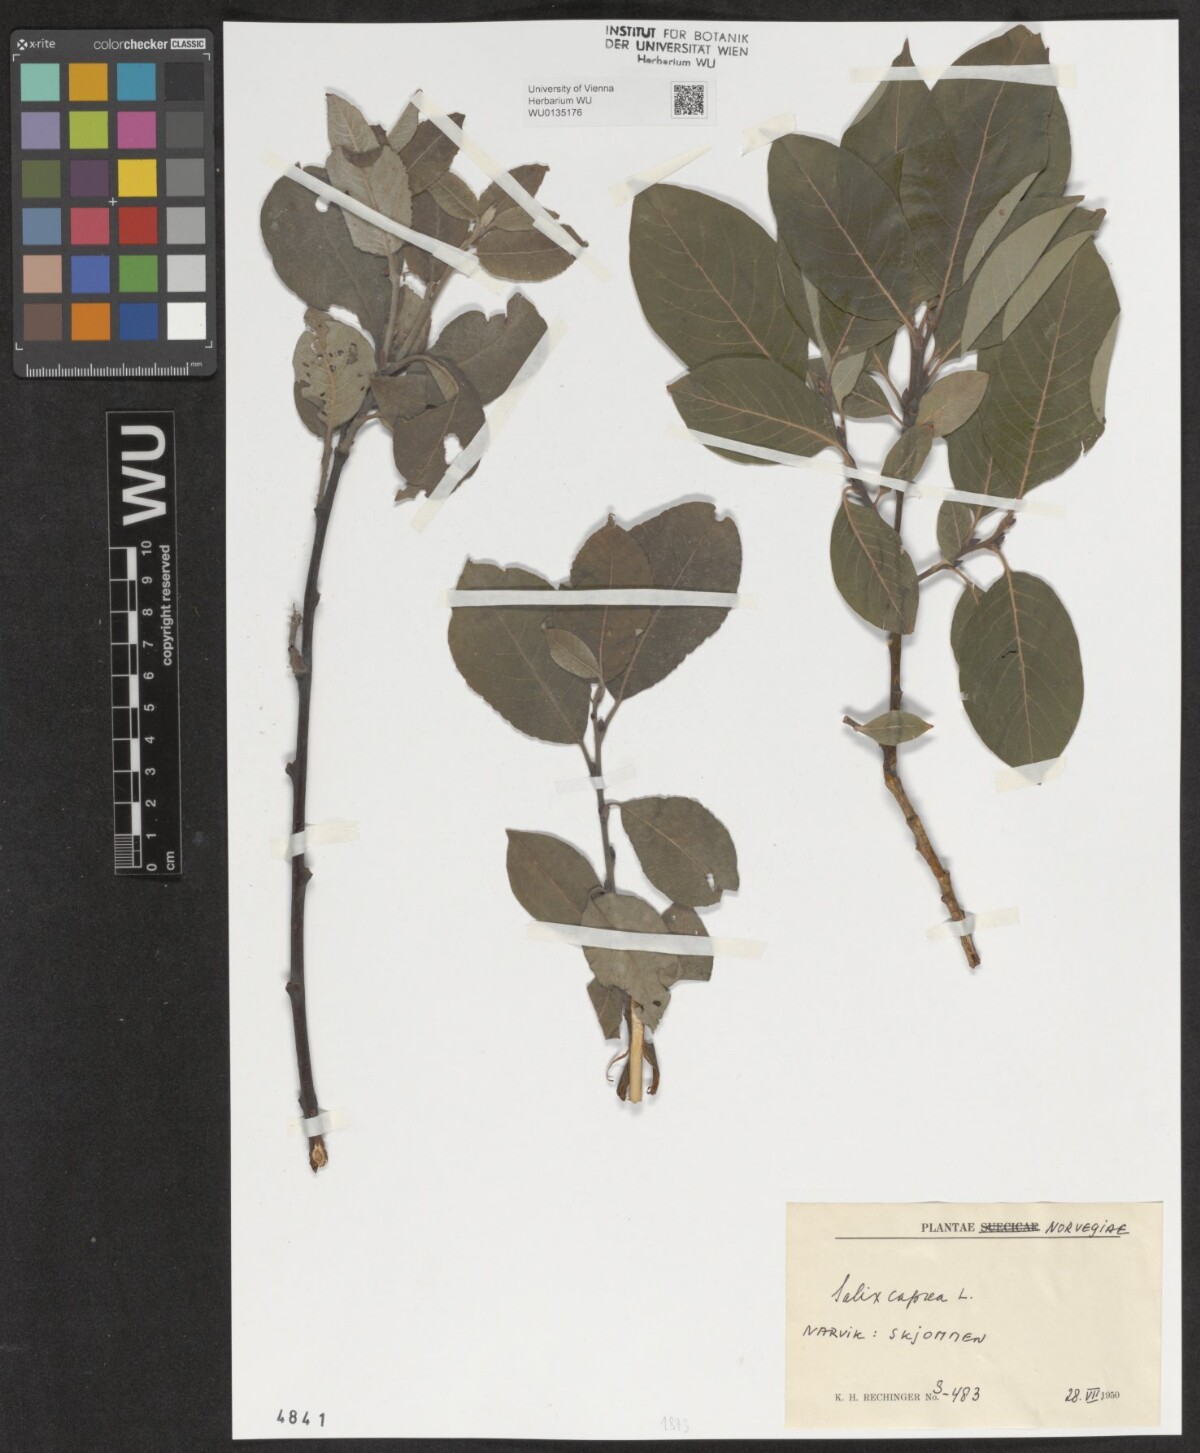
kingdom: Plantae
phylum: Tracheophyta
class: Magnoliopsida
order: Malpighiales
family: Salicaceae
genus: Salix
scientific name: Salix caprea
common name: Goat willow
